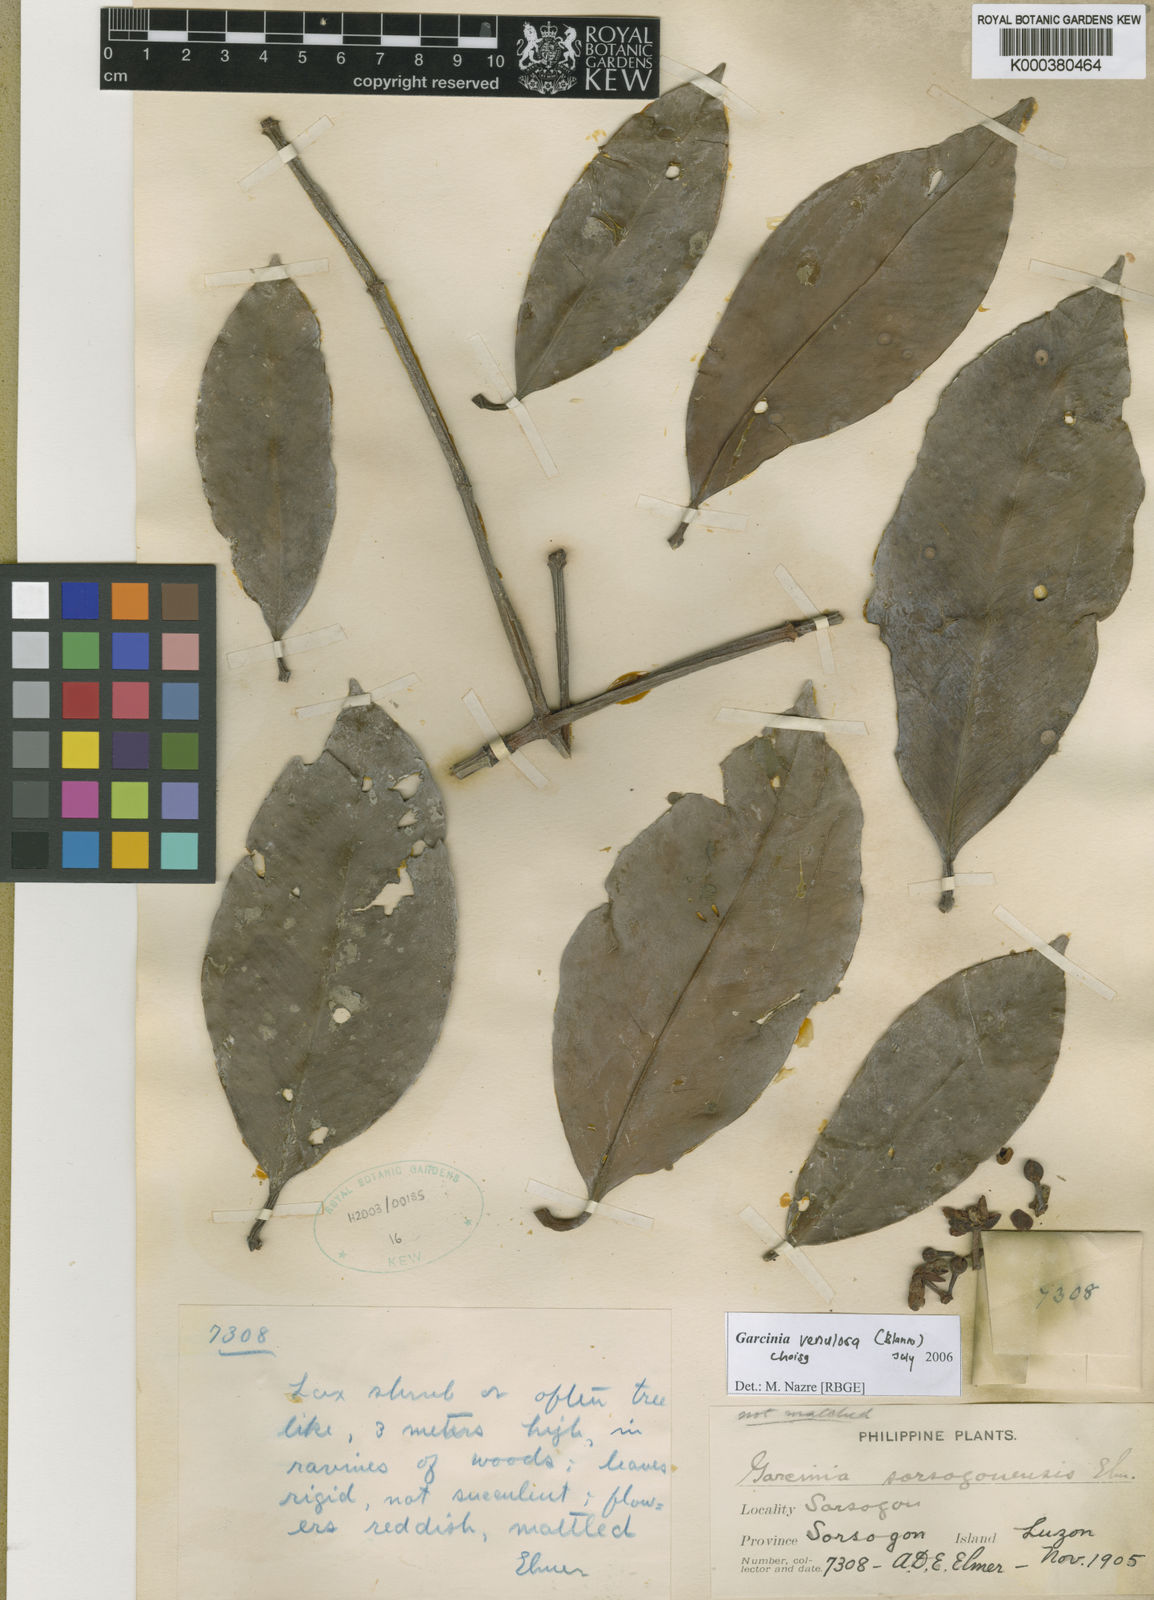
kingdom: Plantae
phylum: Tracheophyta
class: Magnoliopsida
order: Malpighiales
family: Clusiaceae
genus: Garcinia
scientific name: Garcinia venulosa
